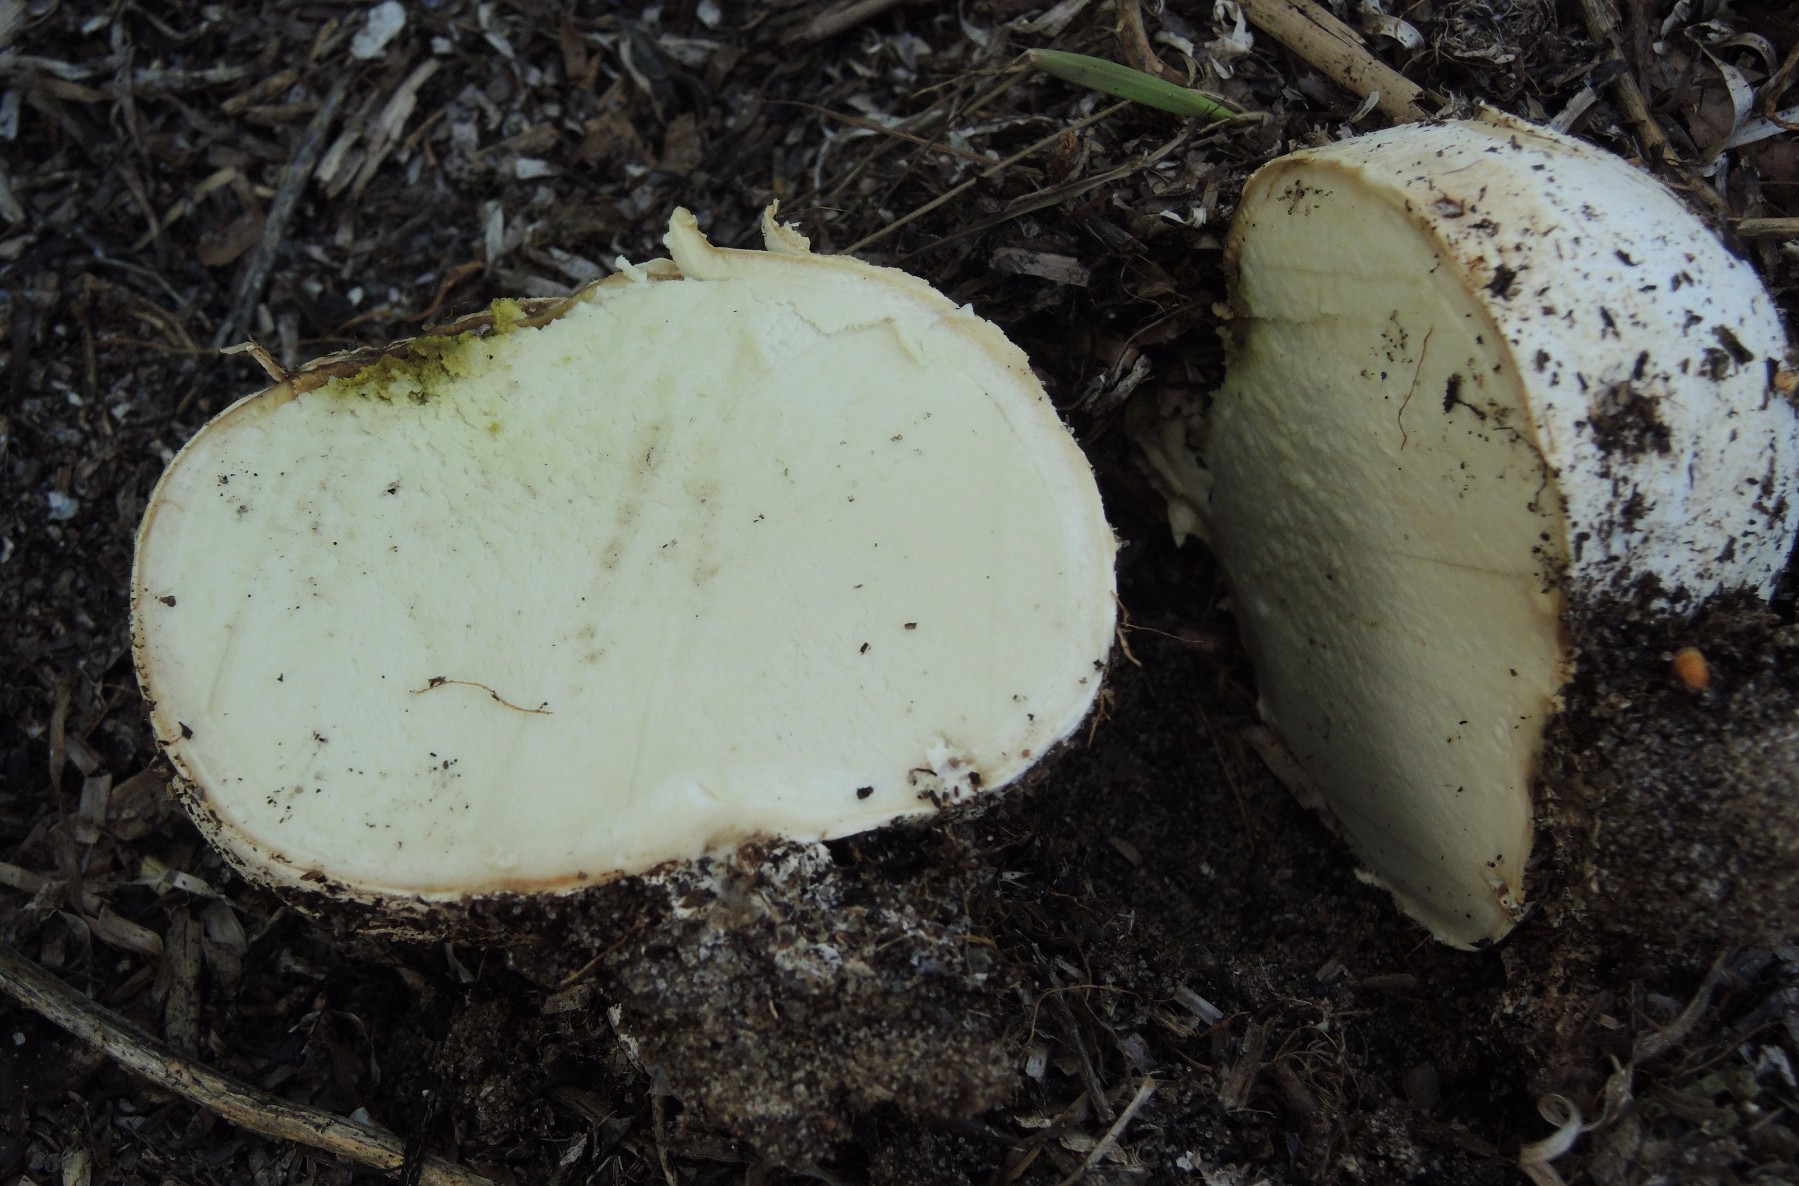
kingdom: Fungi
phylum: Basidiomycota
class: Agaricomycetes
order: Agaricales
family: Agaricaceae
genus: Mycenastrum
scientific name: Mycenastrum corium
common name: læderbold
